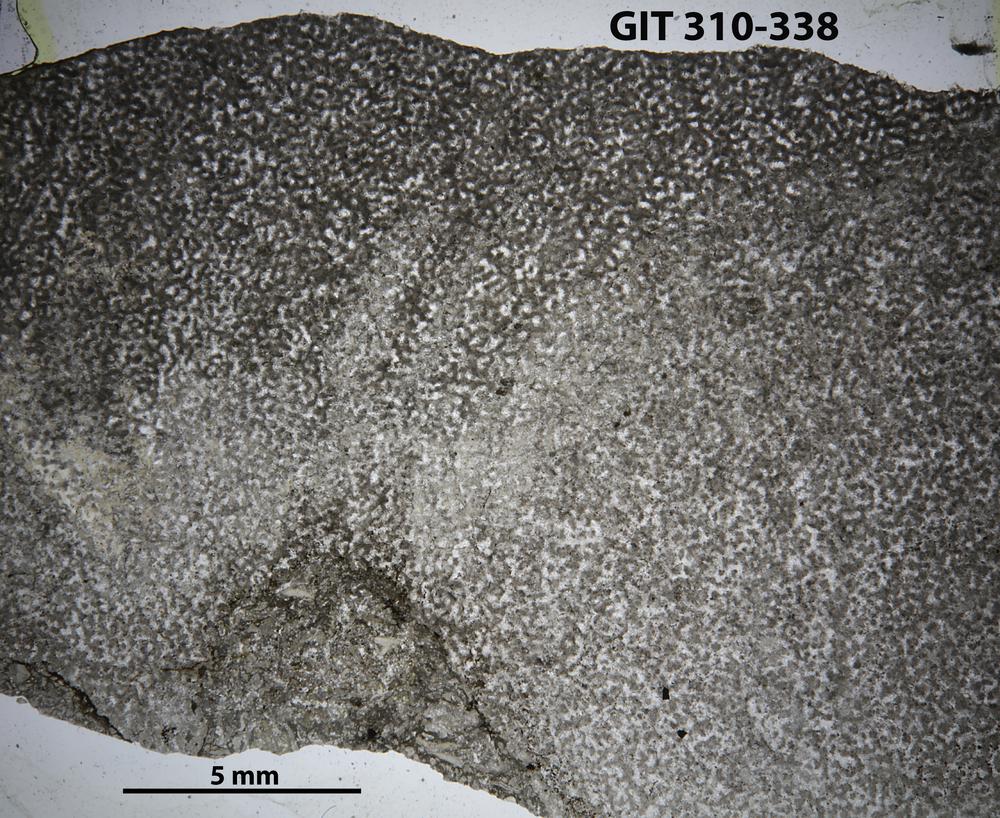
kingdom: Animalia
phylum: Porifera
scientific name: Porifera
